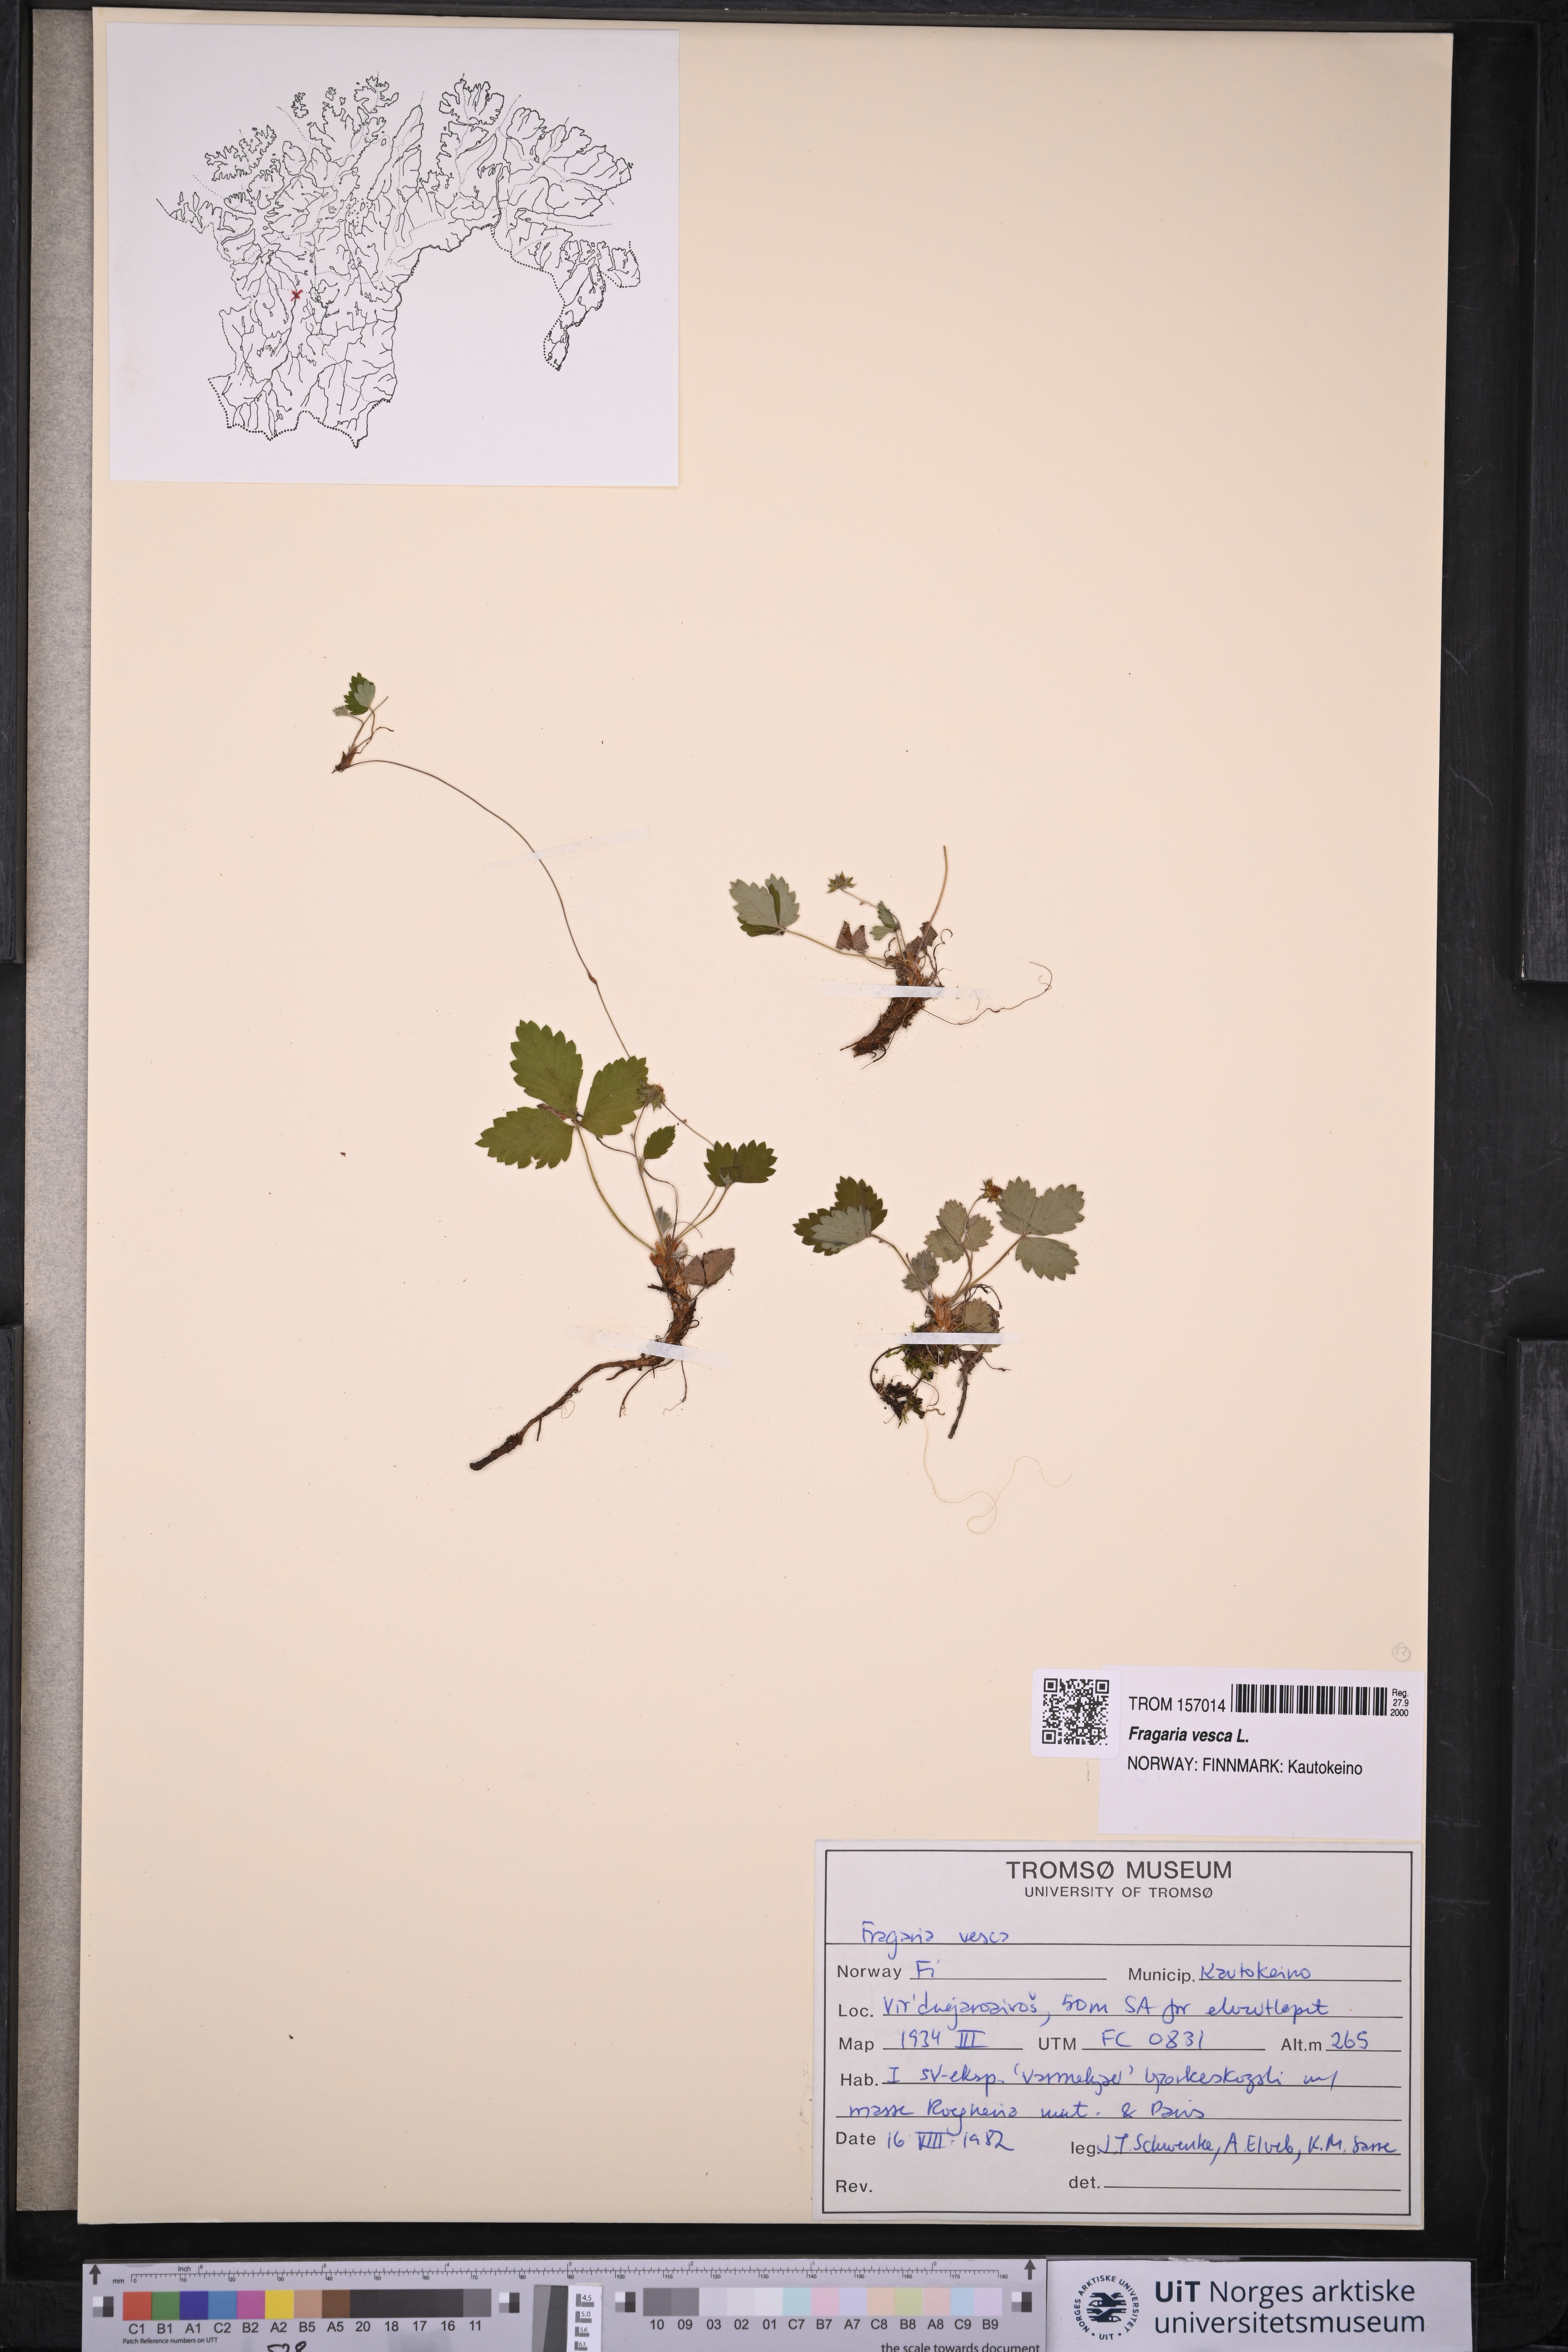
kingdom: Plantae
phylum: Tracheophyta
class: Magnoliopsida
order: Rosales
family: Rosaceae
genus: Fragaria
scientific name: Fragaria vesca
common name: Wild strawberry
